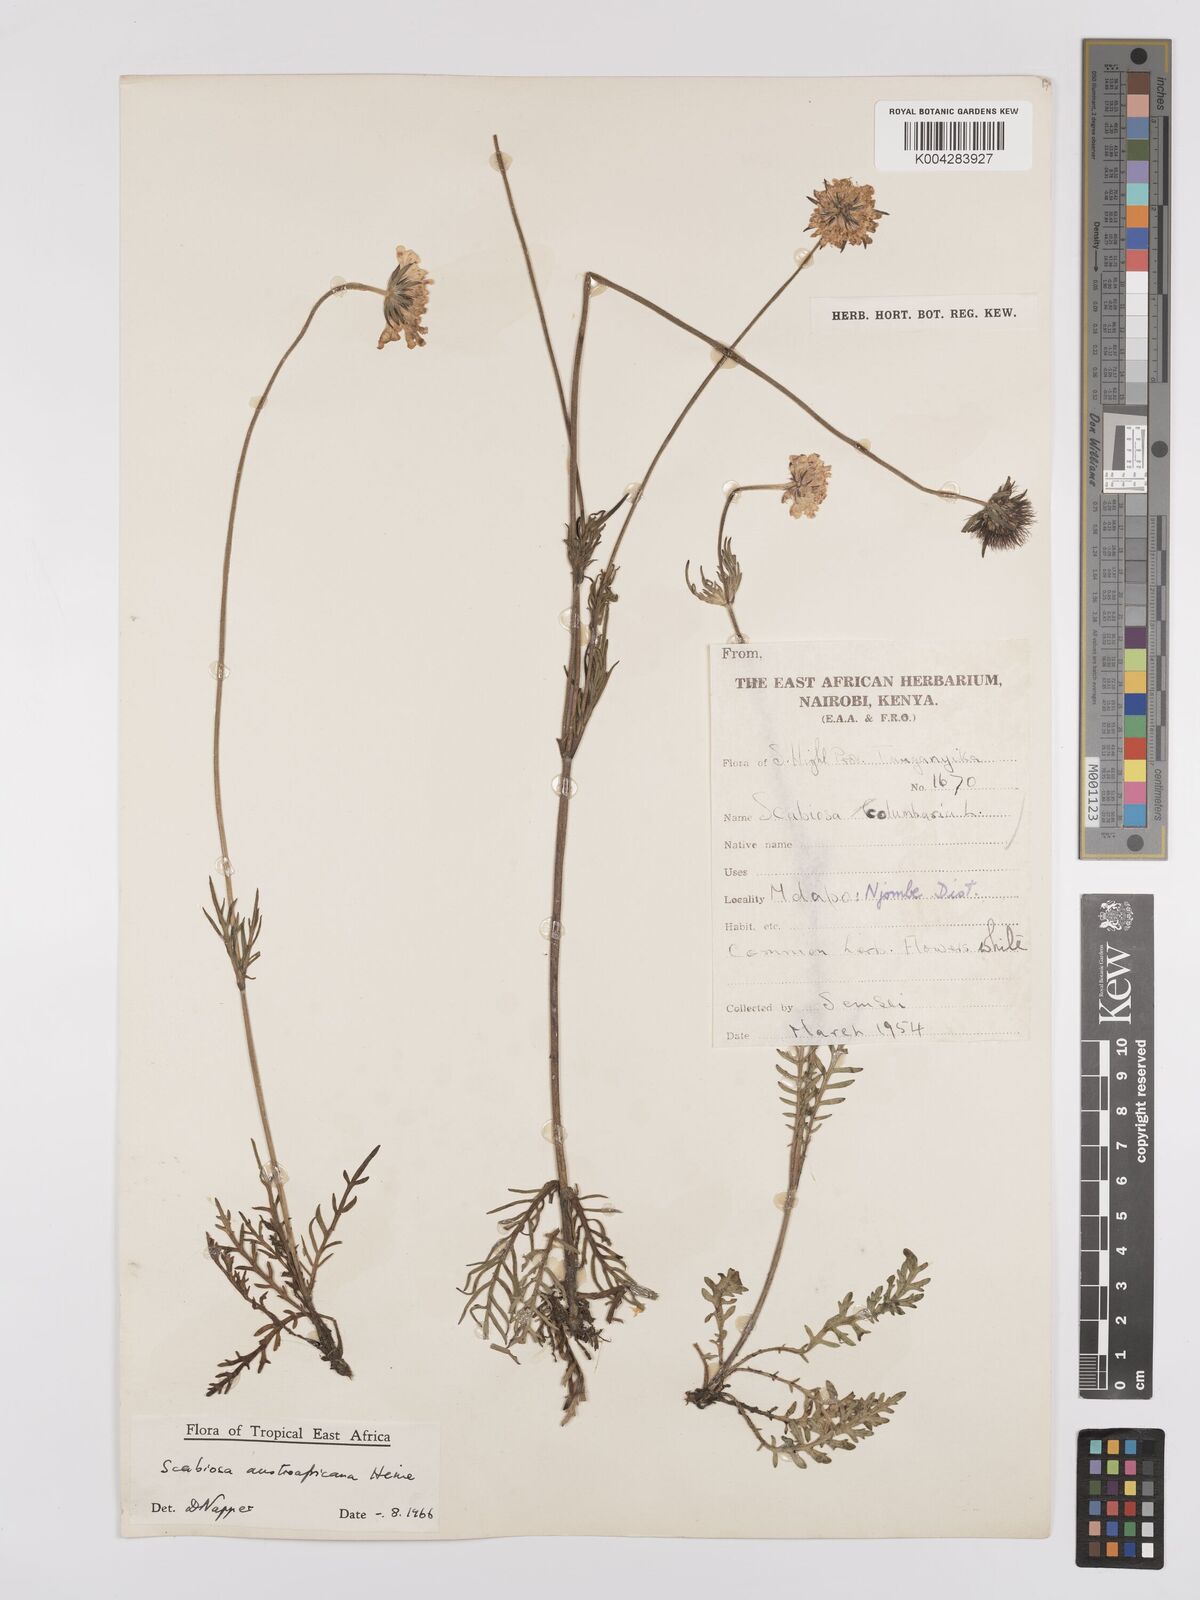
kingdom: Plantae
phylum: Tracheophyta
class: Magnoliopsida
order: Dipsacales
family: Caprifoliaceae
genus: Scabiosa
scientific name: Scabiosa austroafricana
